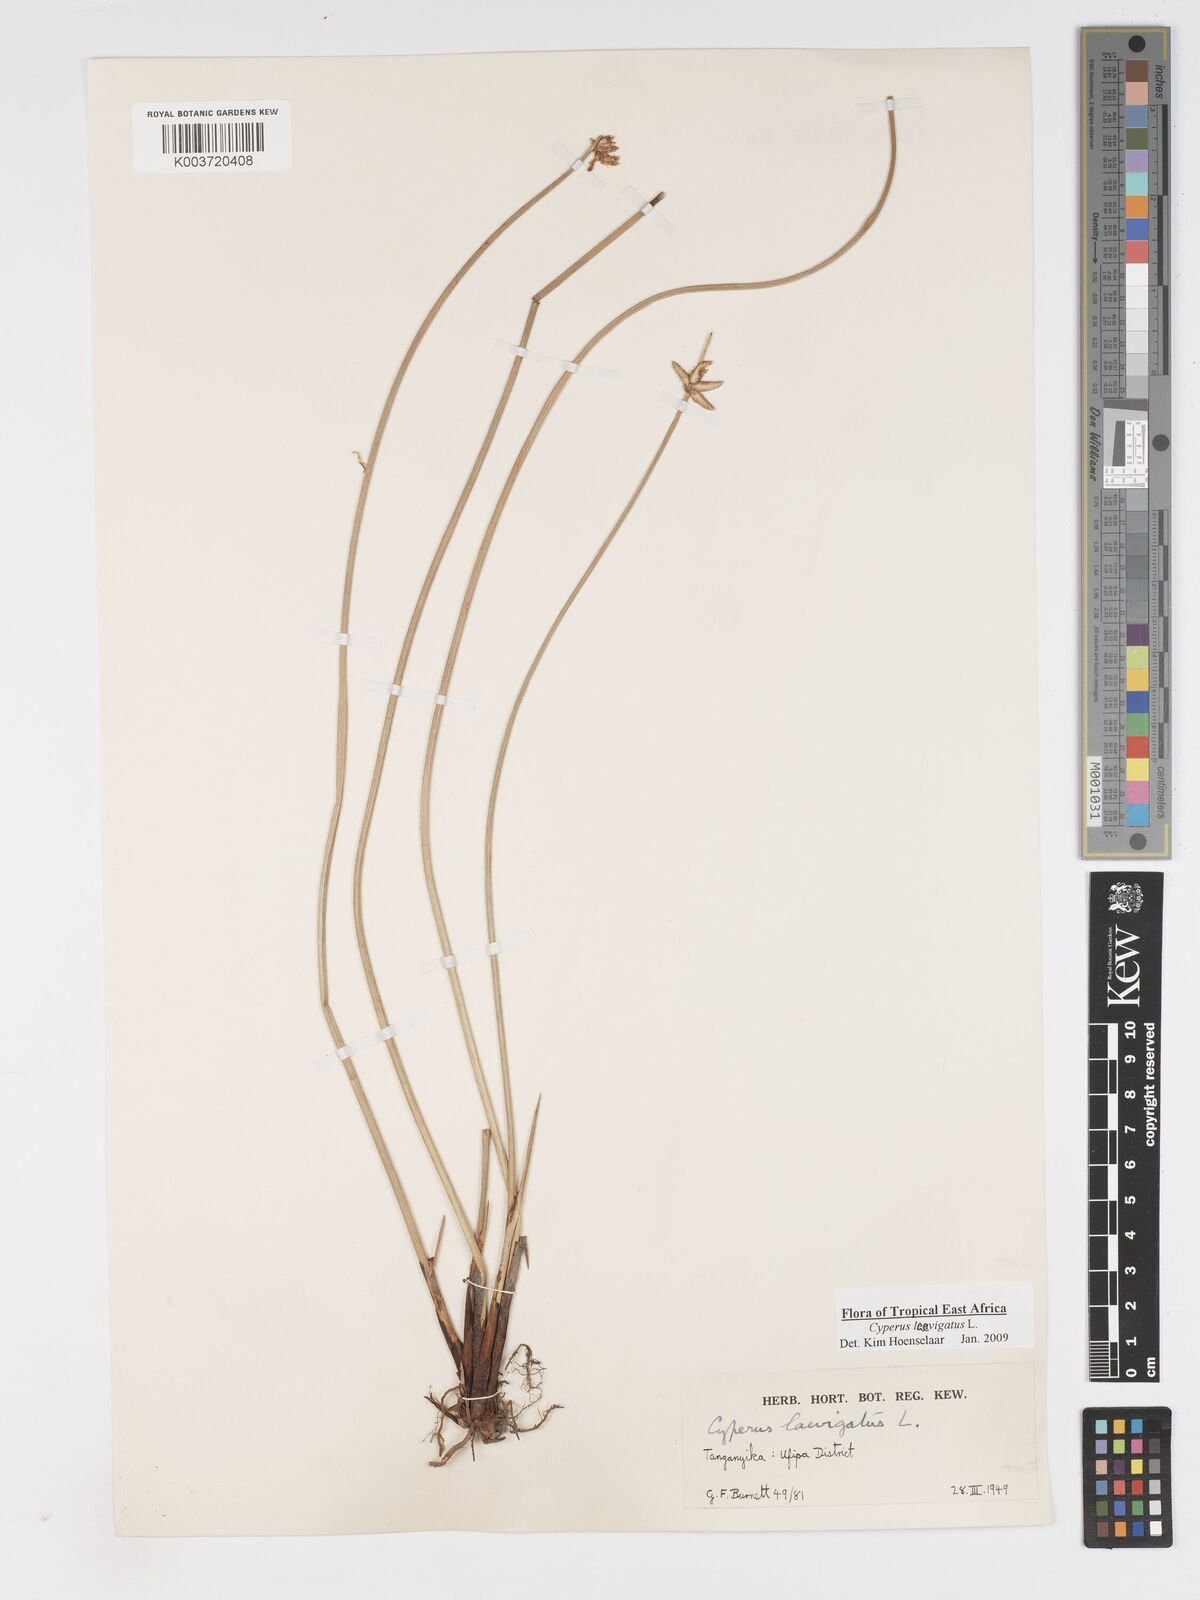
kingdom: Plantae
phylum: Tracheophyta
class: Liliopsida
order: Poales
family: Cyperaceae
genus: Cyperus
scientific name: Cyperus laevigatus
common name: Smooth flat sedge
